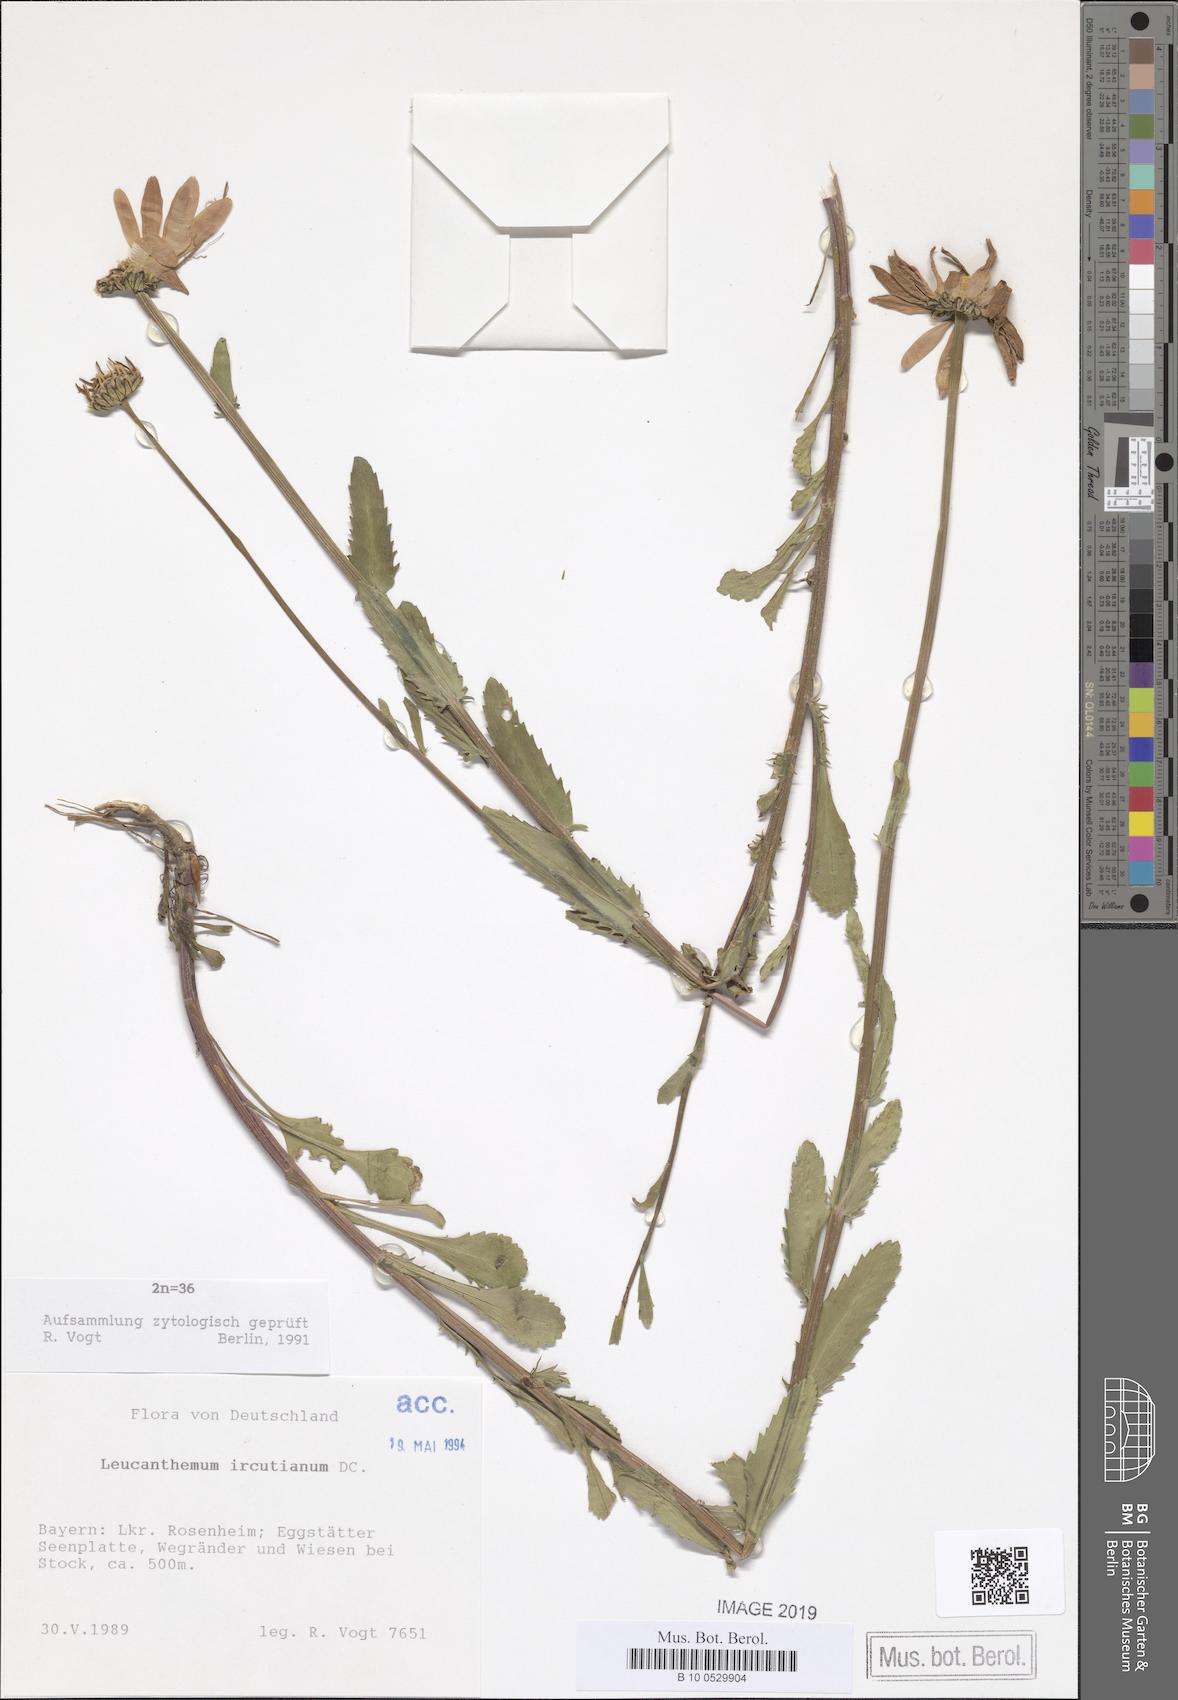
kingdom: Plantae
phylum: Tracheophyta
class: Magnoliopsida
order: Asterales
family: Asteraceae
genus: Leucanthemum
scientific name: Leucanthemum ircutianum
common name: Daisy
